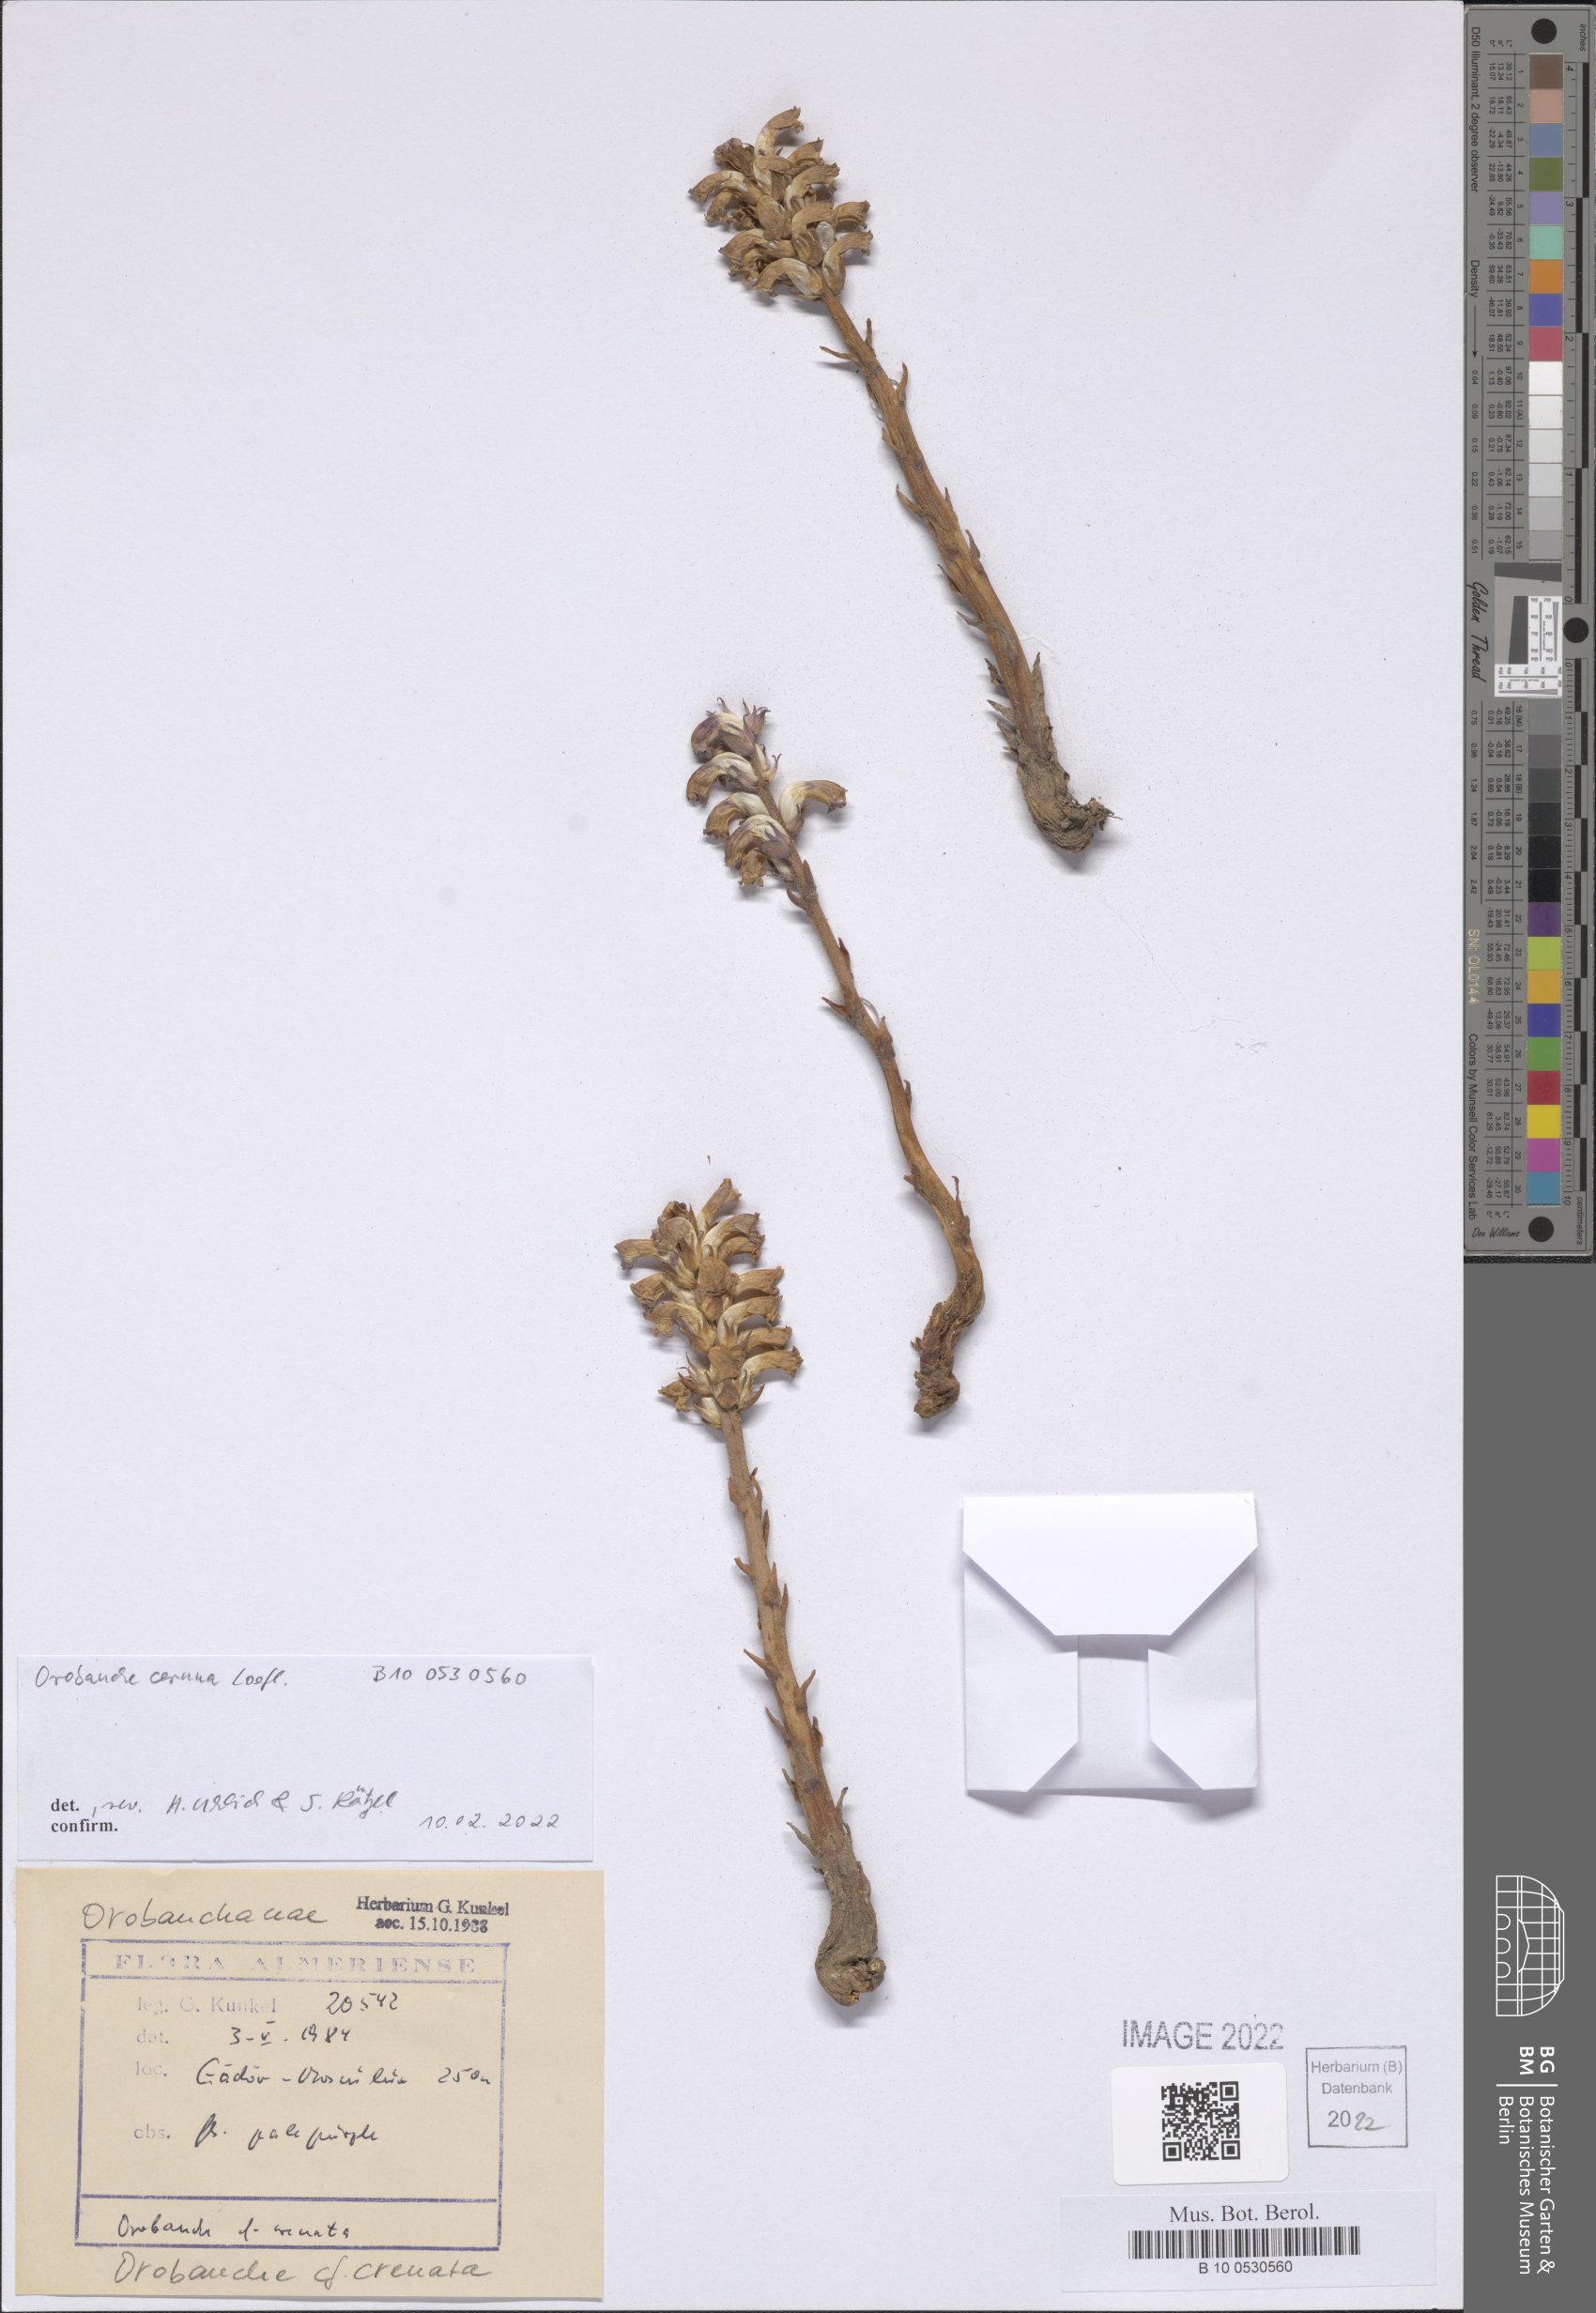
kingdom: Plantae
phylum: Tracheophyta
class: Magnoliopsida
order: Lamiales
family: Orobanchaceae
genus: Orobanche
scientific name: Orobanche cernua
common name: Australian broomrape
